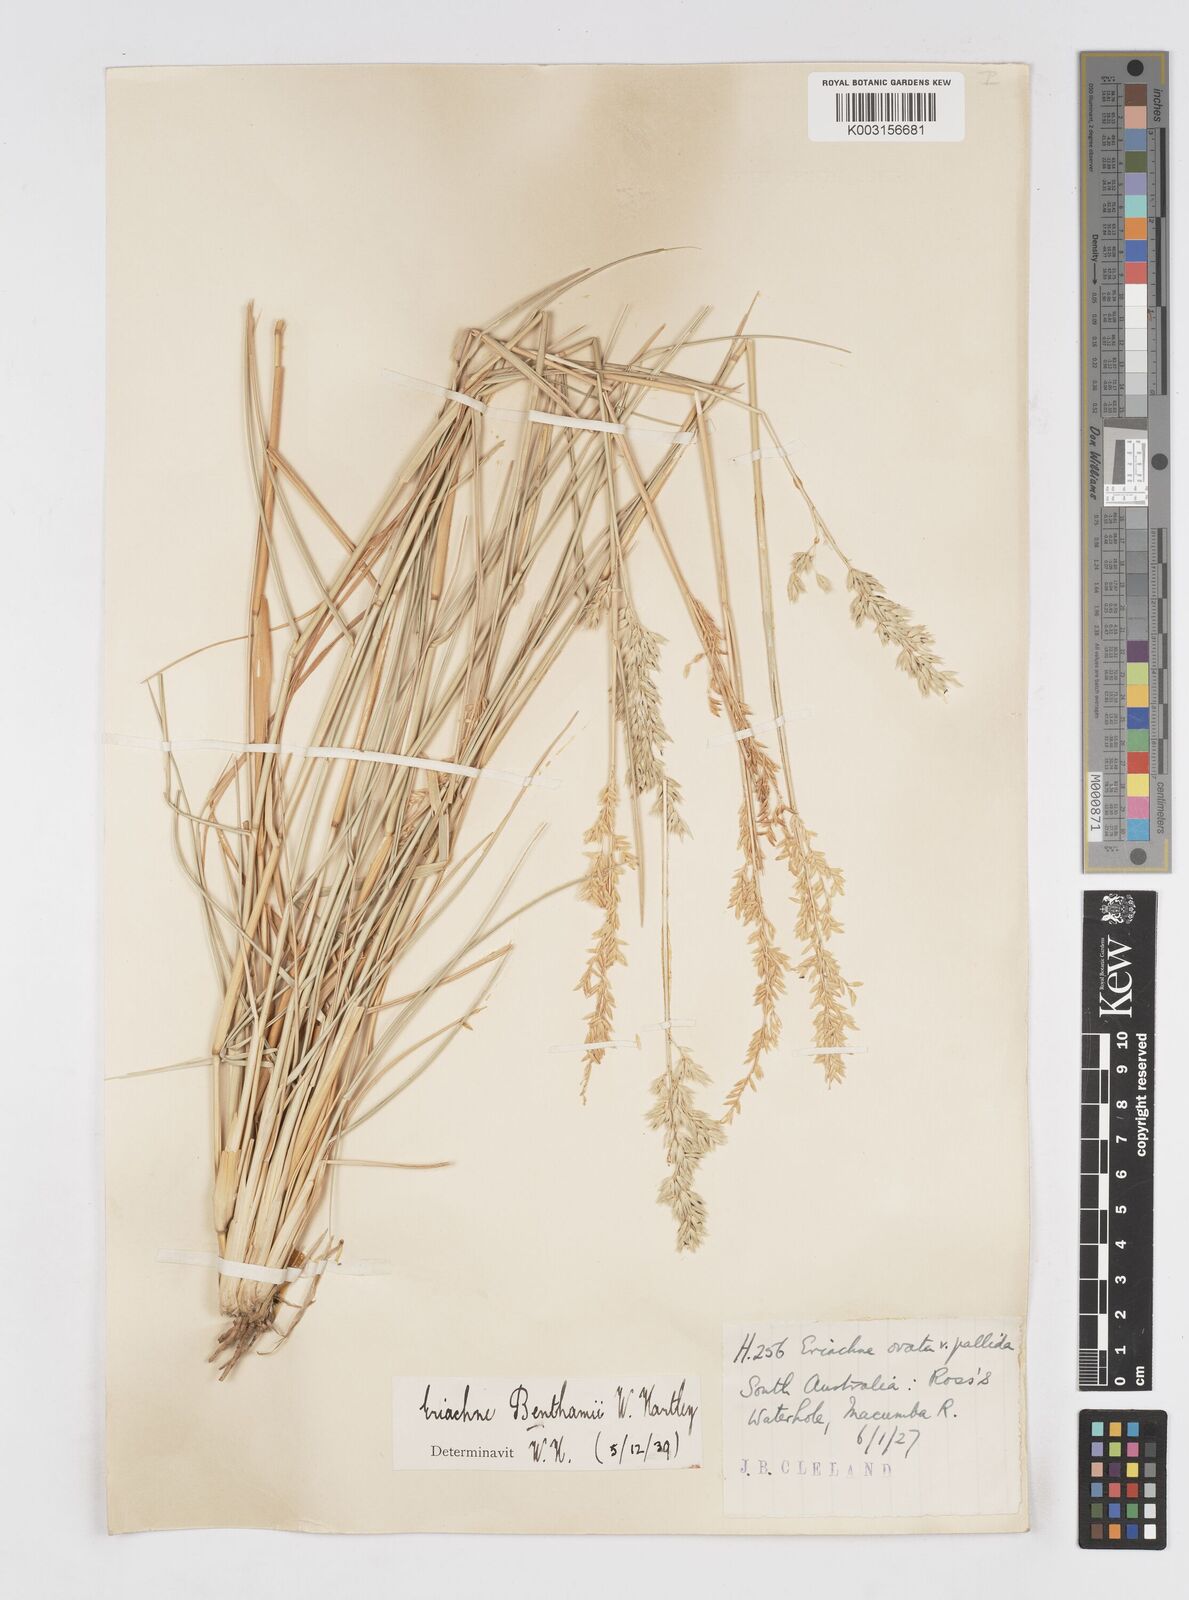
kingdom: Plantae
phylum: Tracheophyta
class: Liliopsida
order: Poales
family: Poaceae
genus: Eriachne
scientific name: Eriachne benthamii
